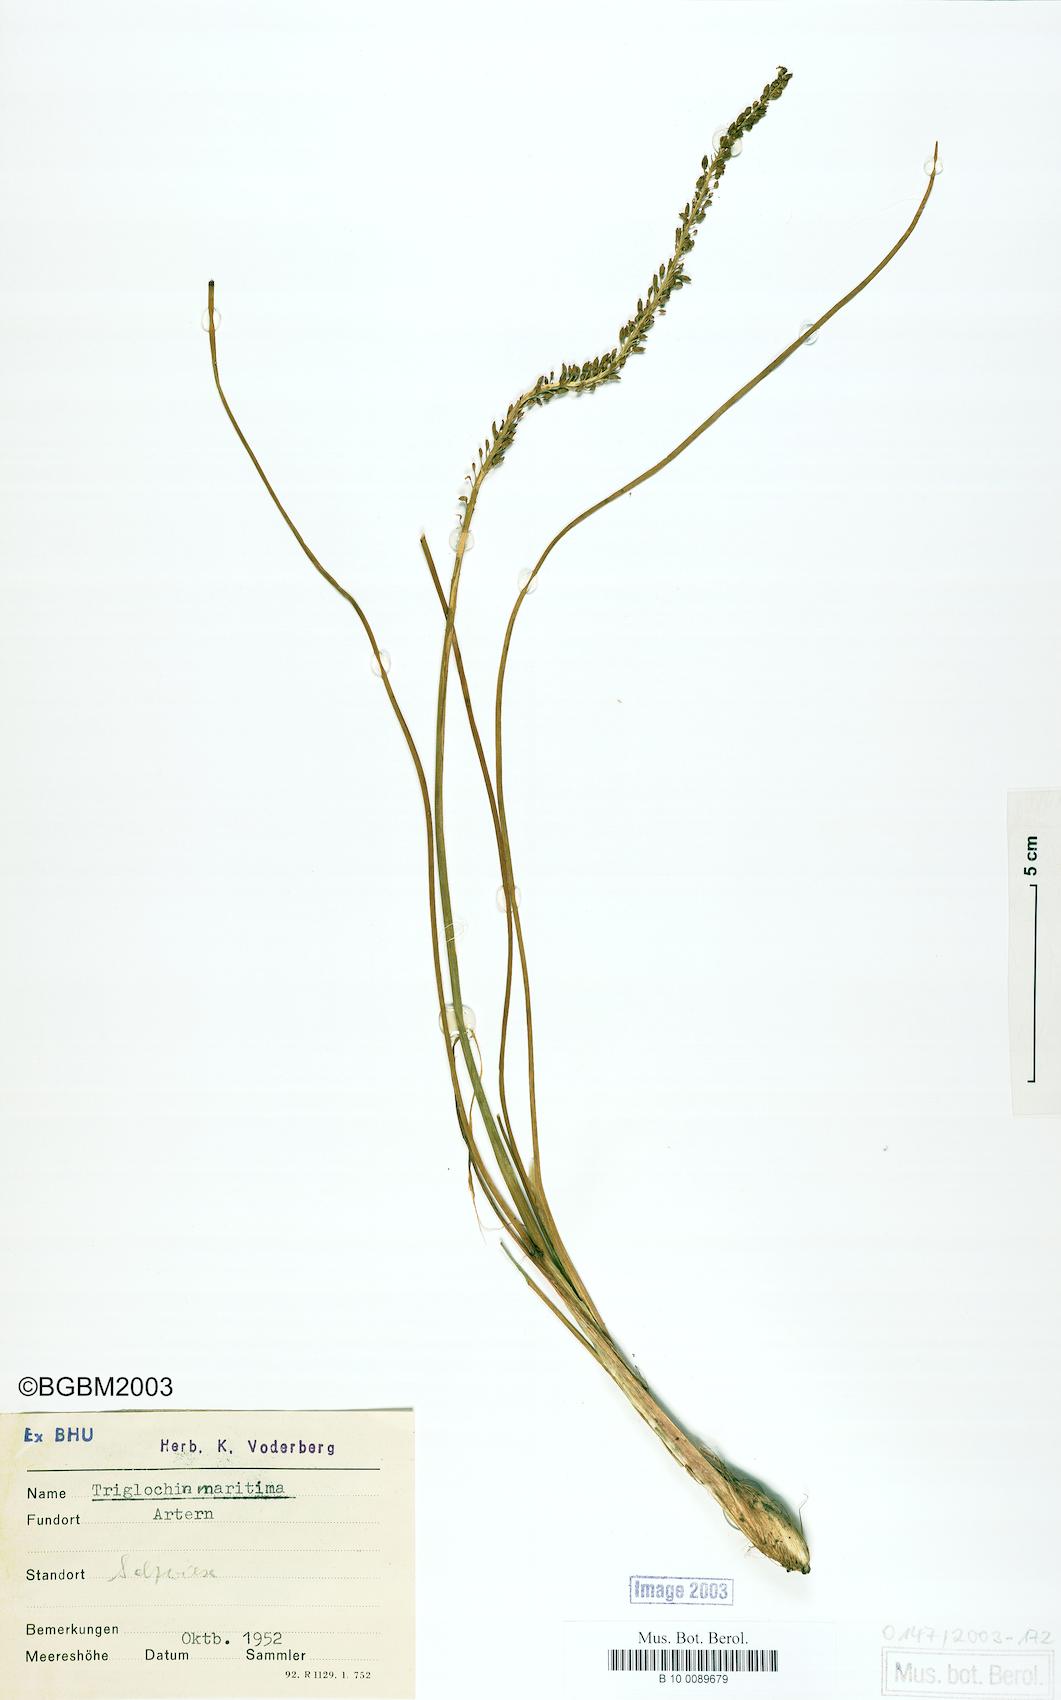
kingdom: Plantae
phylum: Tracheophyta
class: Liliopsida
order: Alismatales
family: Juncaginaceae
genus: Triglochin
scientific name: Triglochin maritima
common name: Sea arrowgrass
